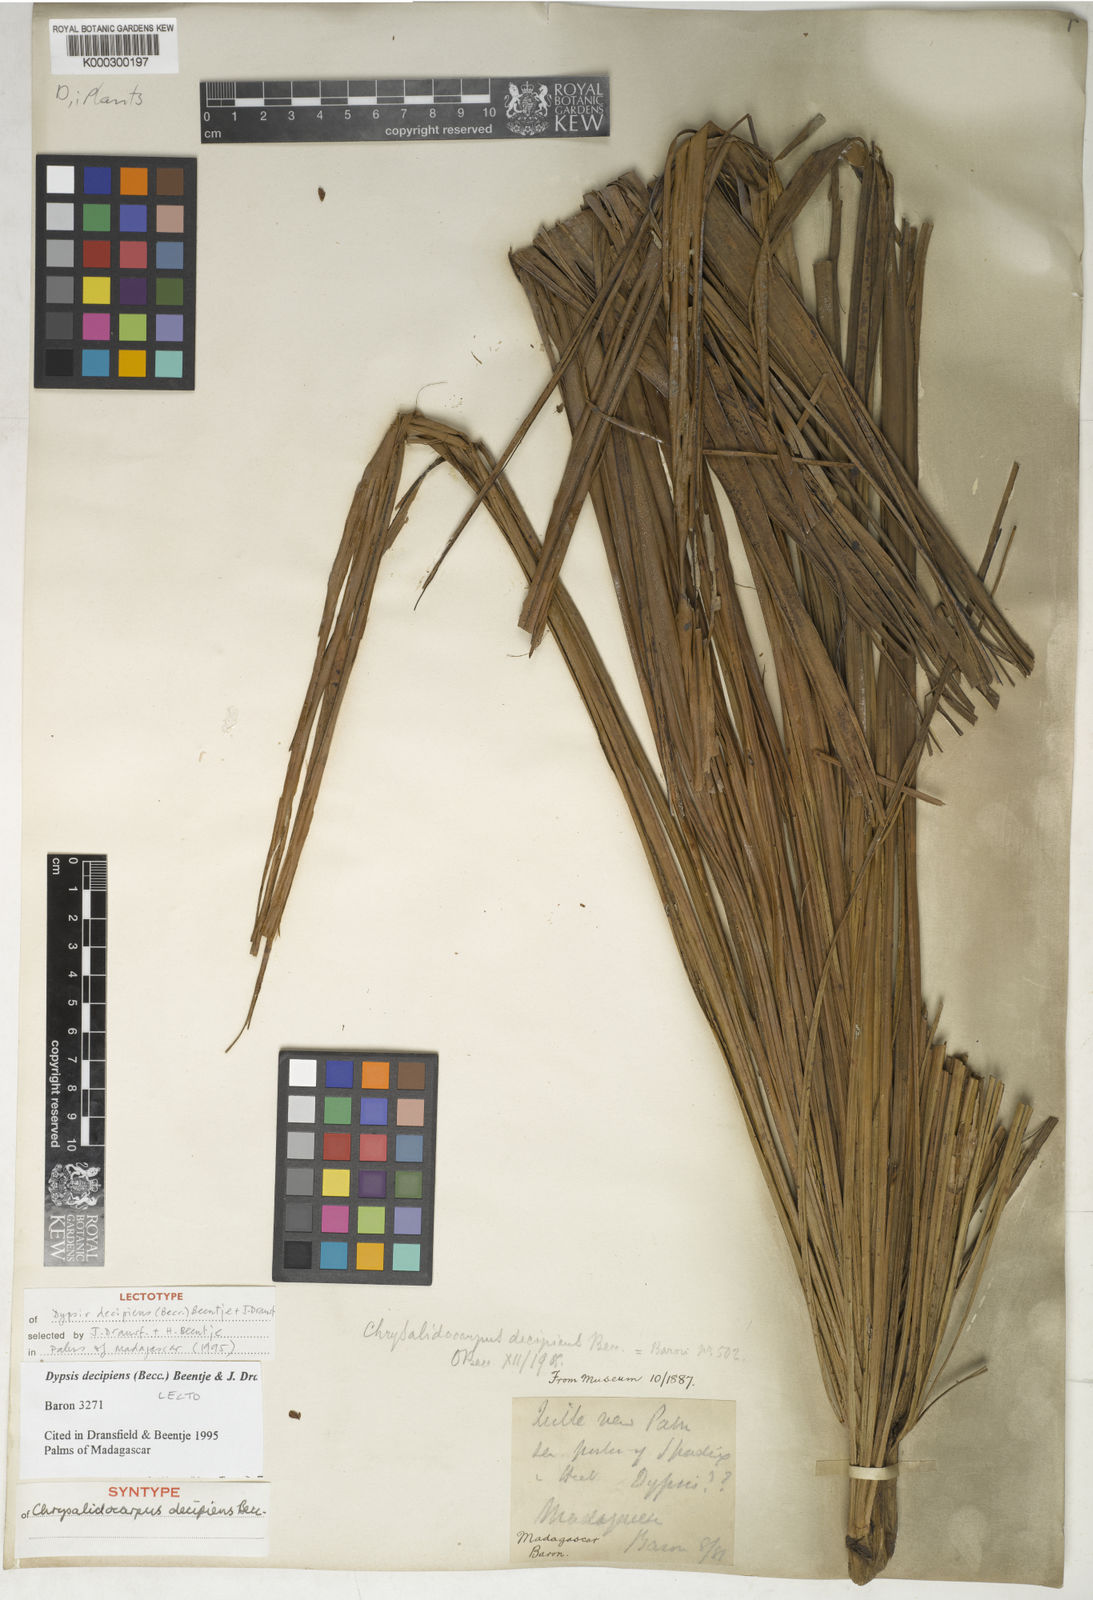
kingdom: Plantae
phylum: Tracheophyta
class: Liliopsida
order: Arecales
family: Arecaceae
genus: Dypsis
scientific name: Dypsis decipiens
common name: Manambe palm
